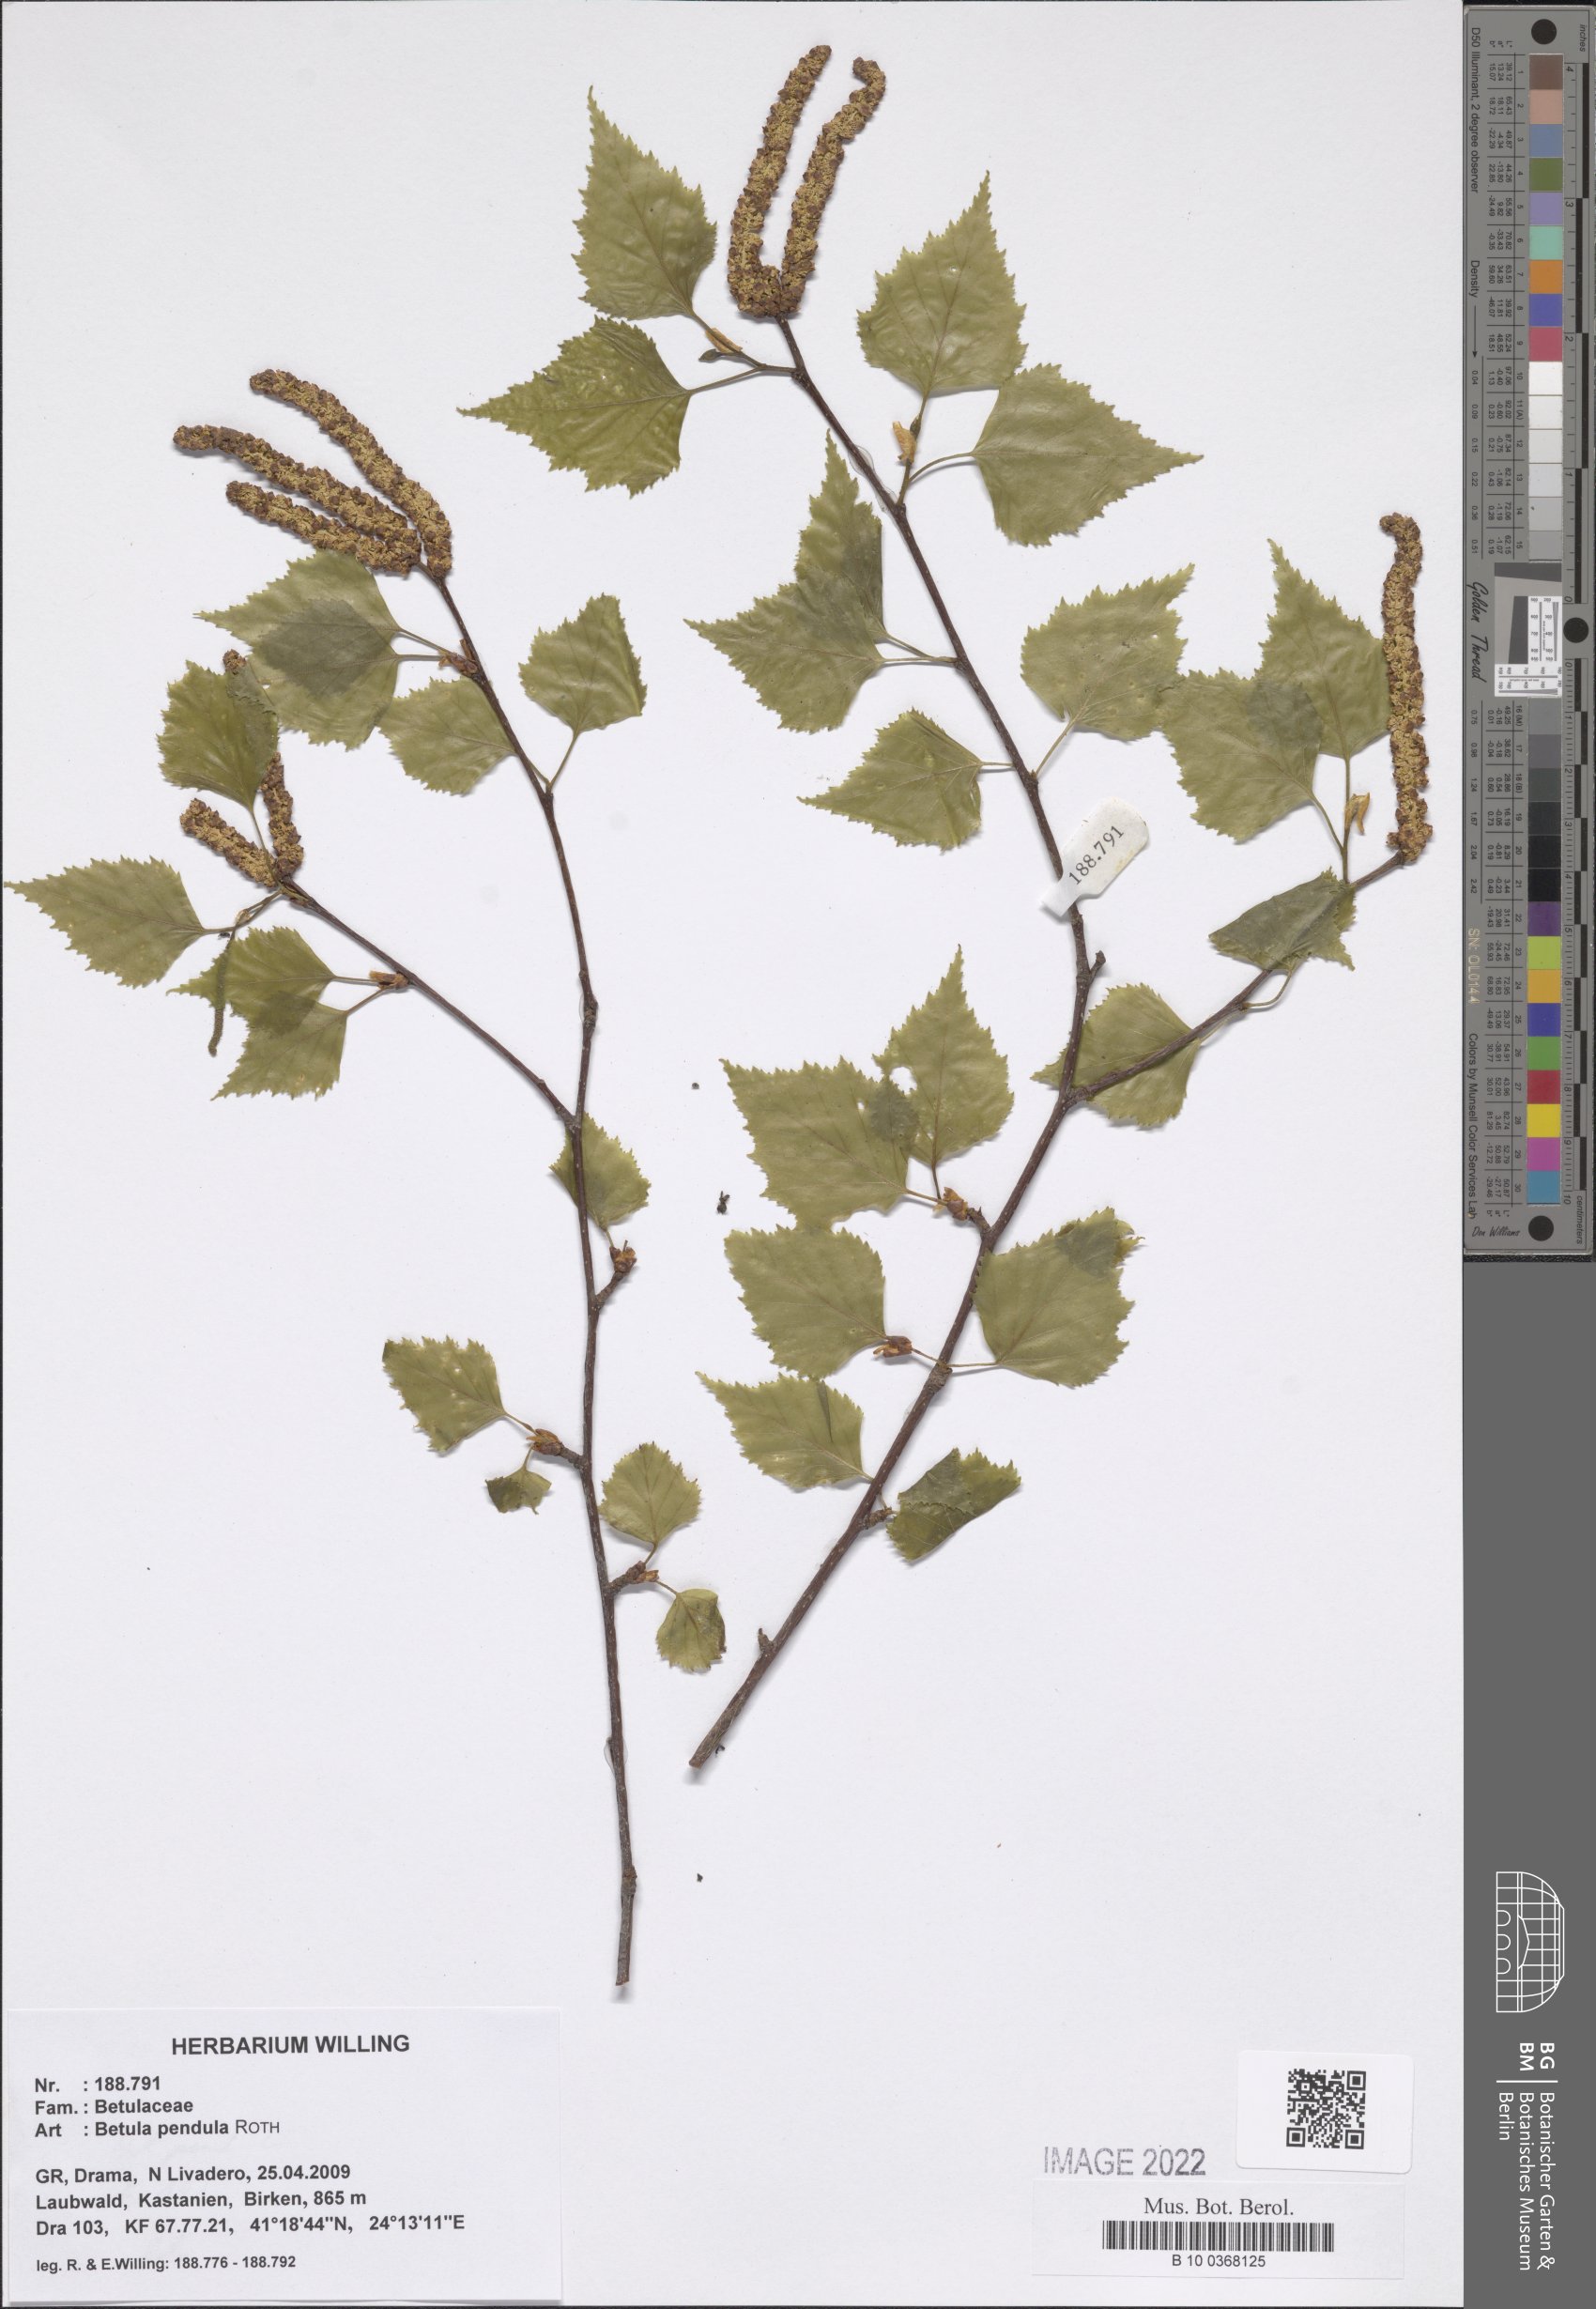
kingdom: Plantae
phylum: Tracheophyta
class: Magnoliopsida
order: Fagales
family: Betulaceae
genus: Betula
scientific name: Betula pendula
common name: Silver birch
